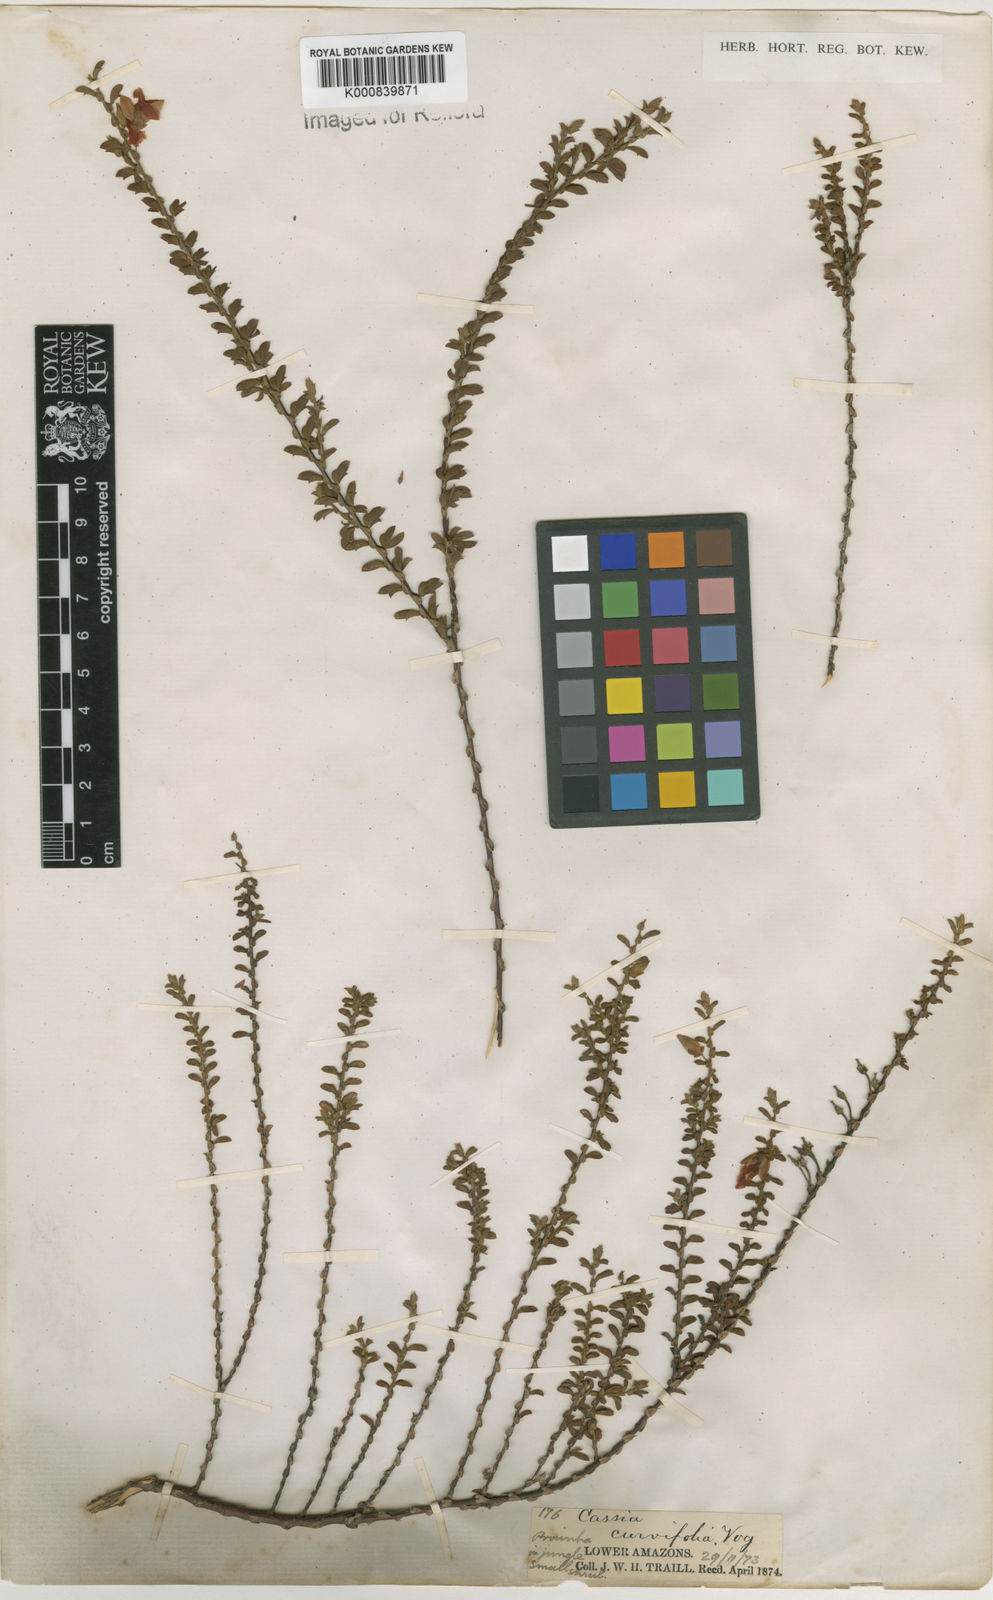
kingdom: Plantae
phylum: Tracheophyta
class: Magnoliopsida
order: Fabales
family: Fabaceae
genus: Chamaecrista
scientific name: Chamaecrista ramosa
